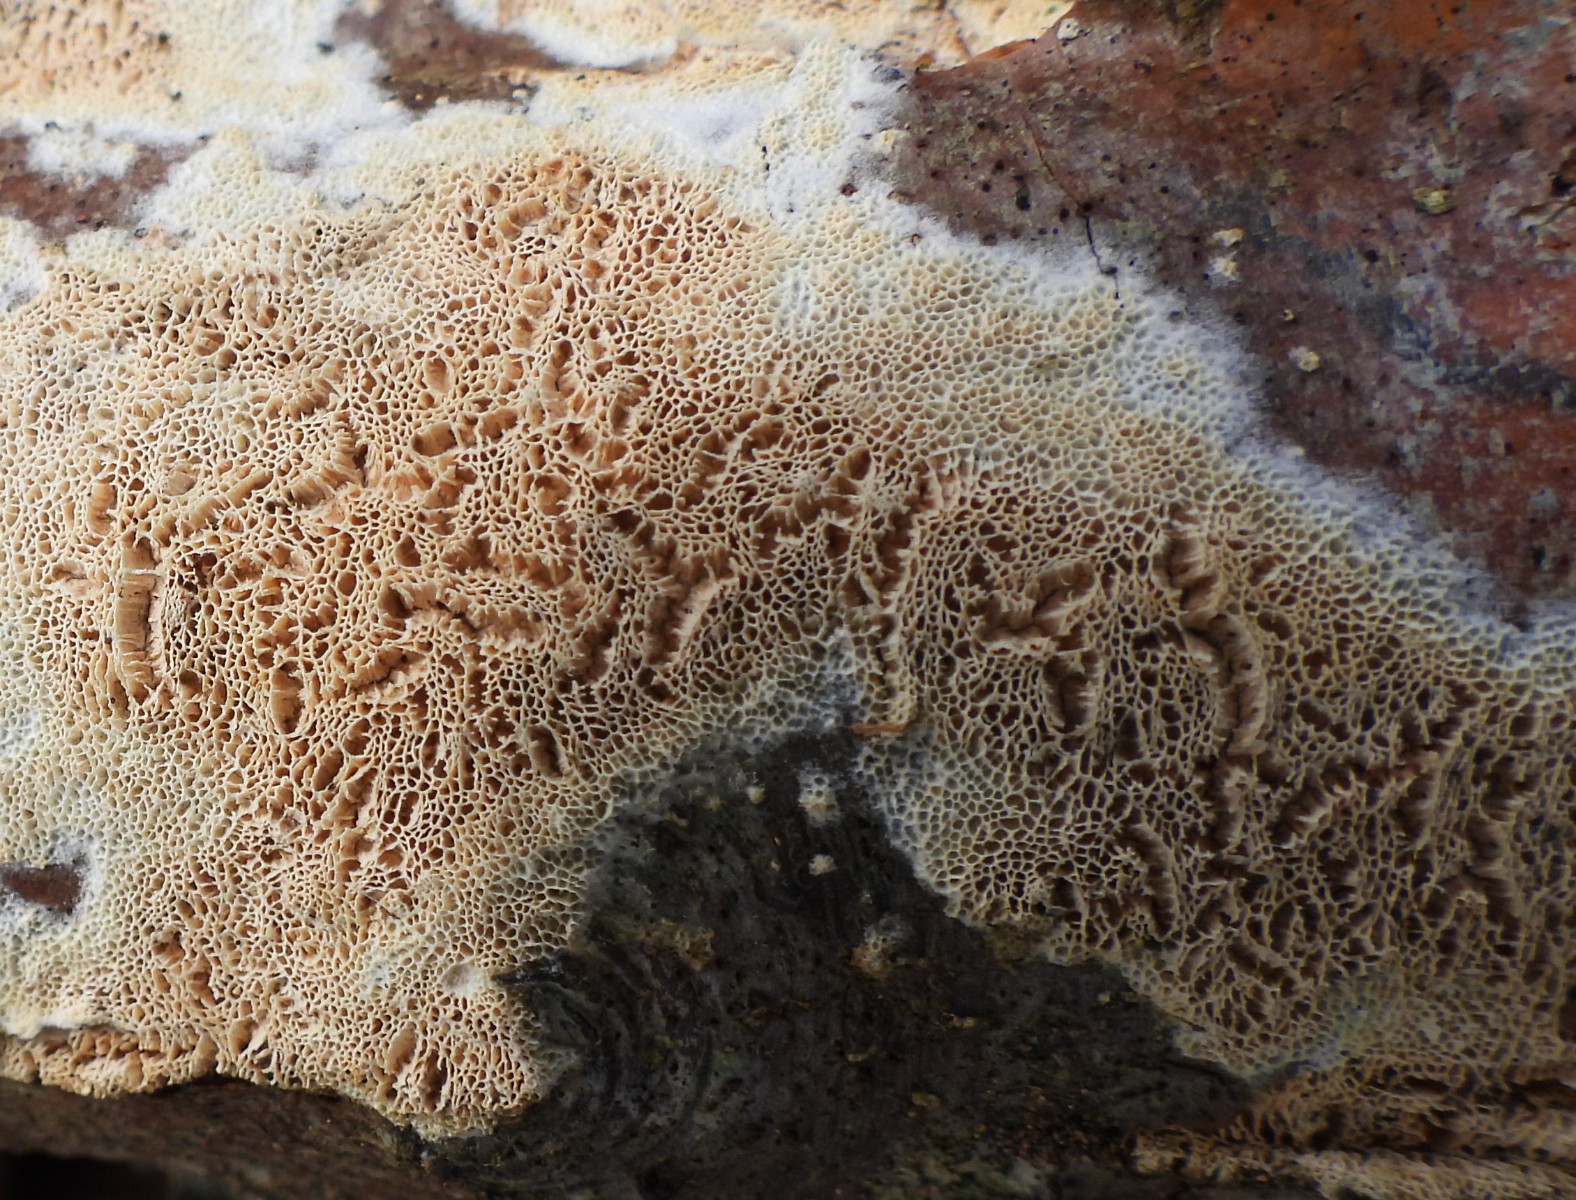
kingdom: Fungi
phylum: Basidiomycota
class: Agaricomycetes
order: Hymenochaetales
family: Schizoporaceae
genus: Xylodon
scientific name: Xylodon subtropicus
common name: labyrint-tandsvamp
